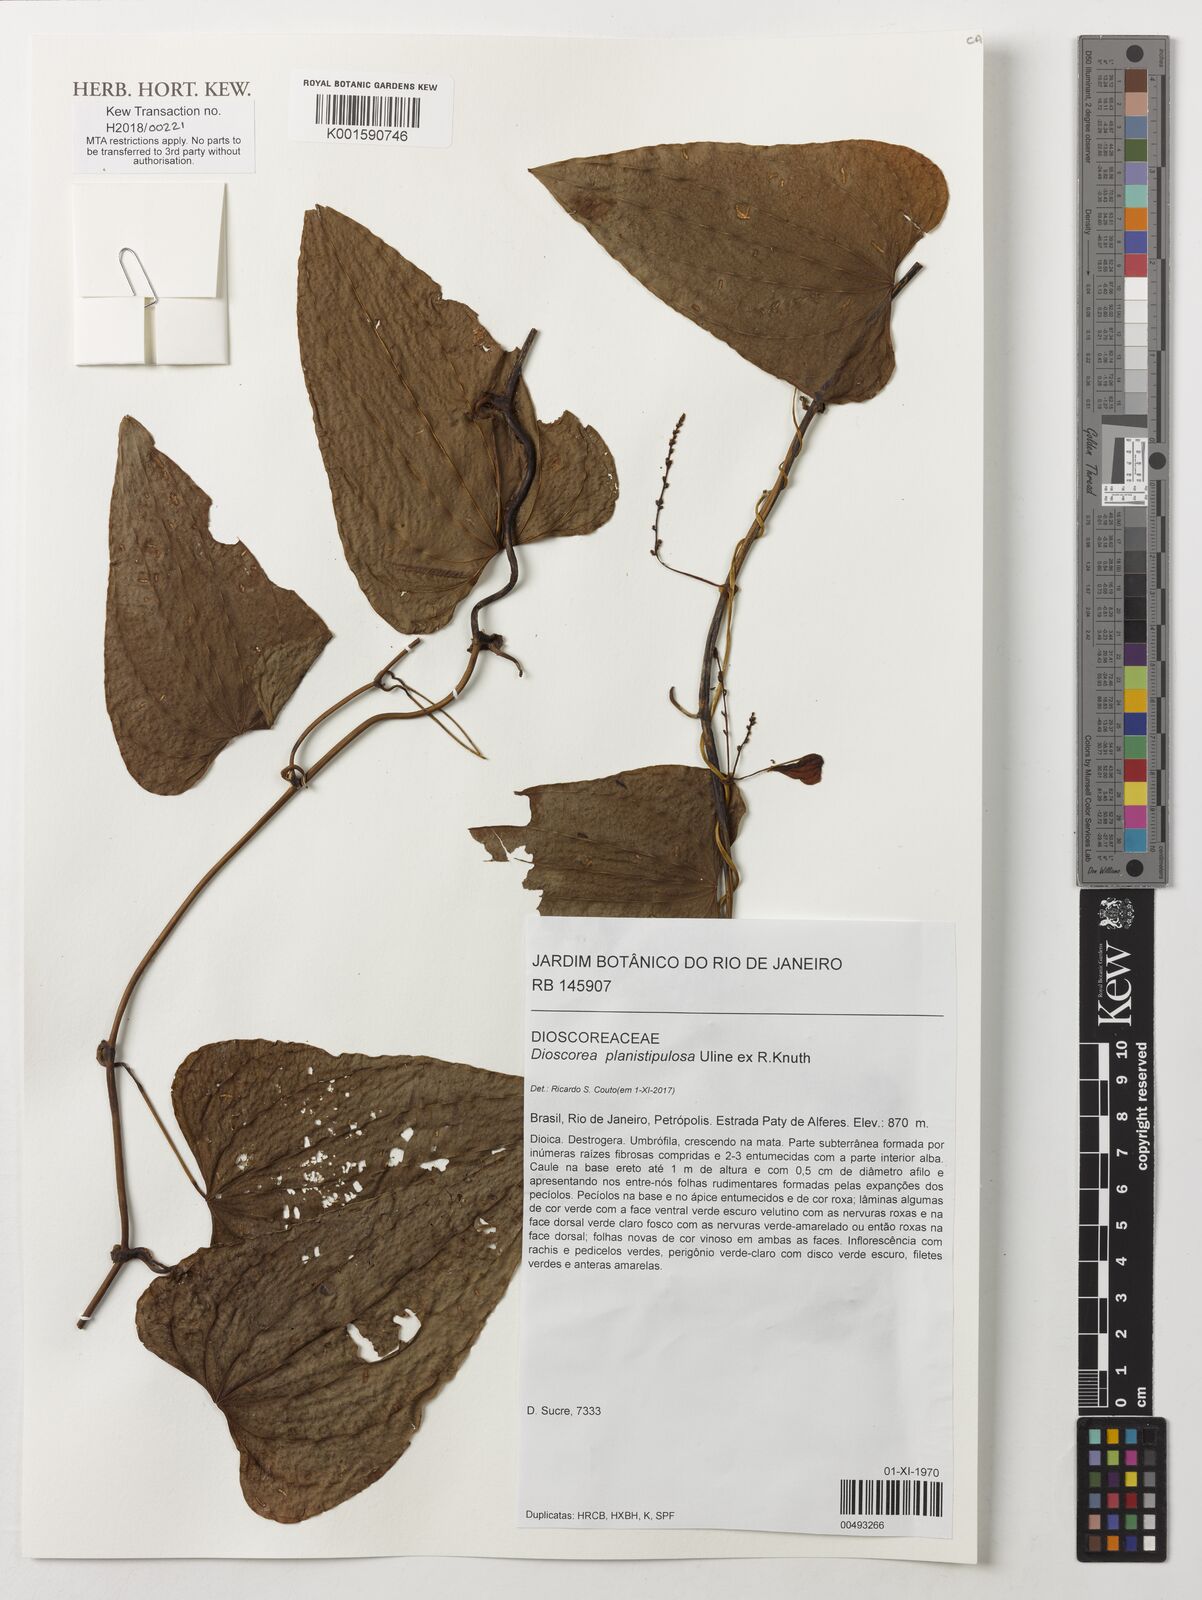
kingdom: Plantae
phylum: Tracheophyta
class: Liliopsida
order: Dioscoreales
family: Dioscoreaceae
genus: Dioscorea
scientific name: Dioscorea planistipulosa
